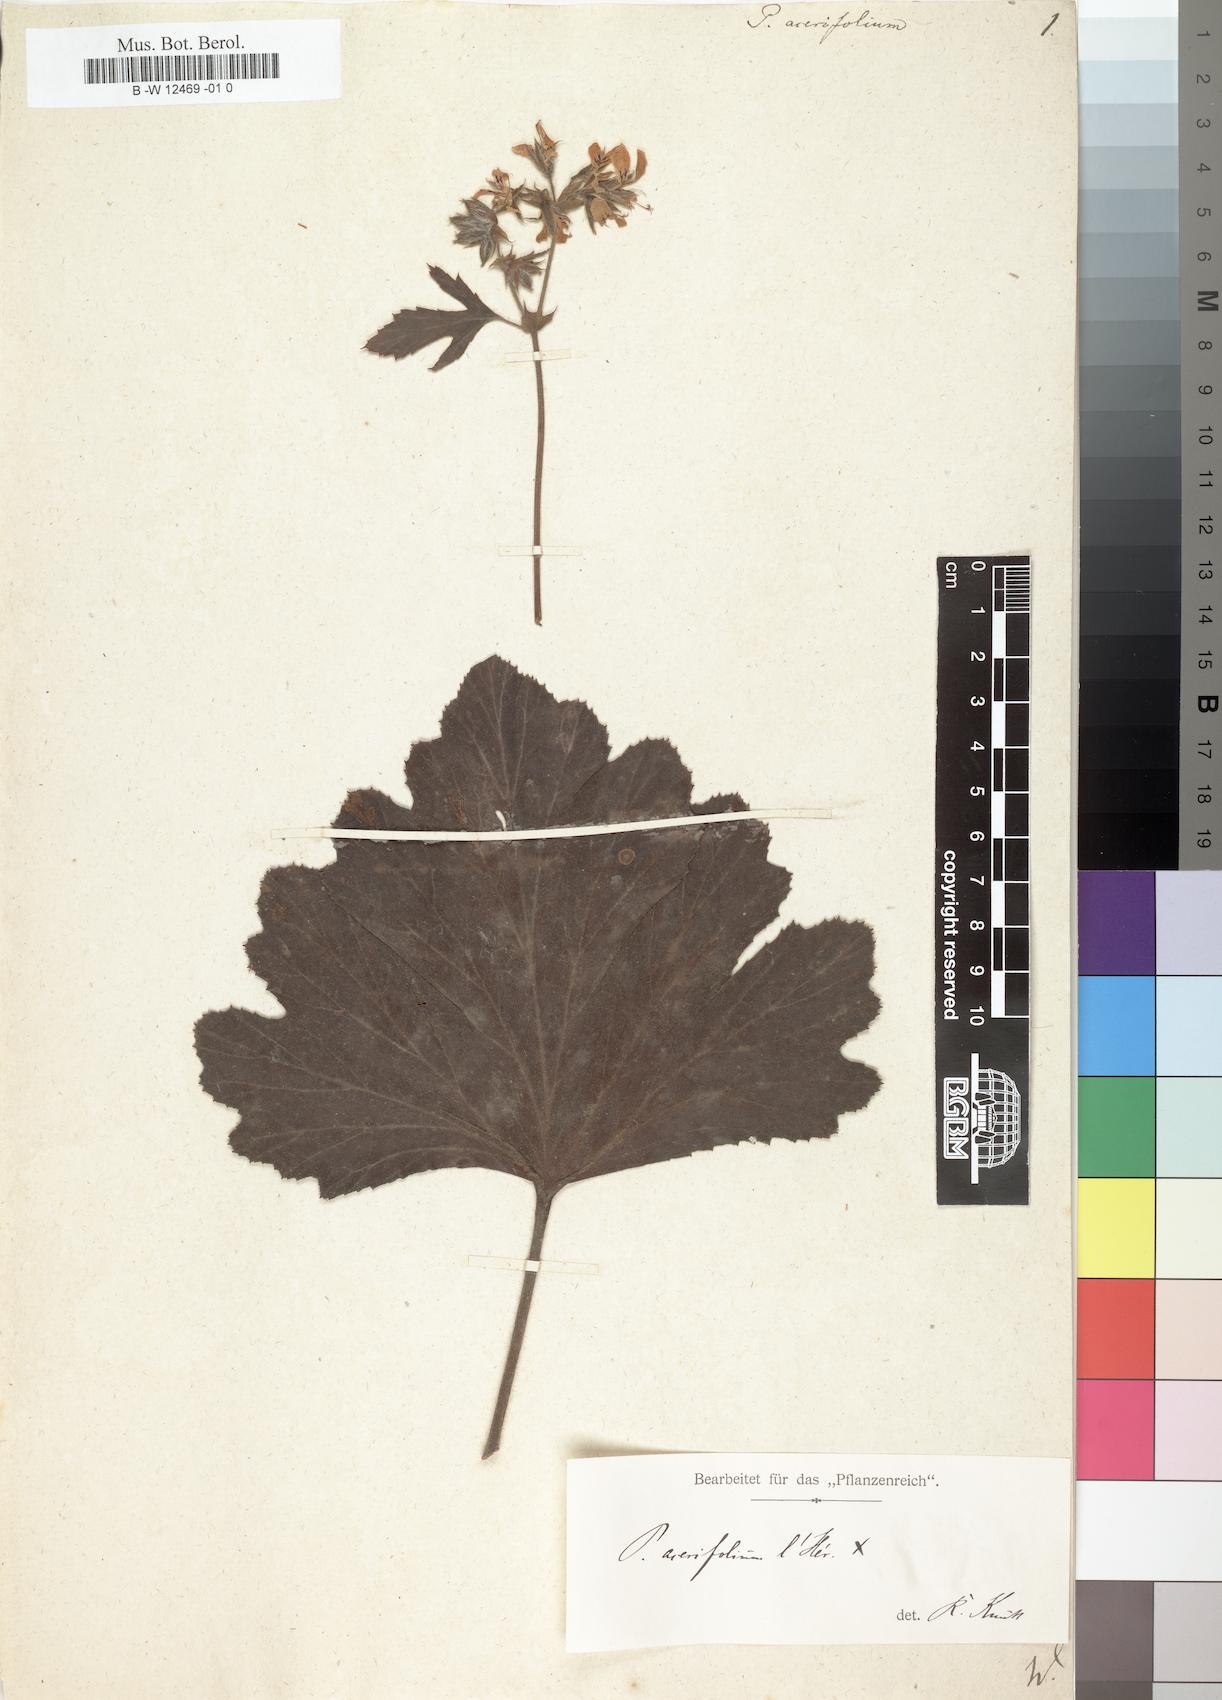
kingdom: Plantae
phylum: Tracheophyta
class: Magnoliopsida
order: Geraniales
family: Geraniaceae
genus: Pelargonium
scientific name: Pelargonium cucullatum
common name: Tree pelargonium
